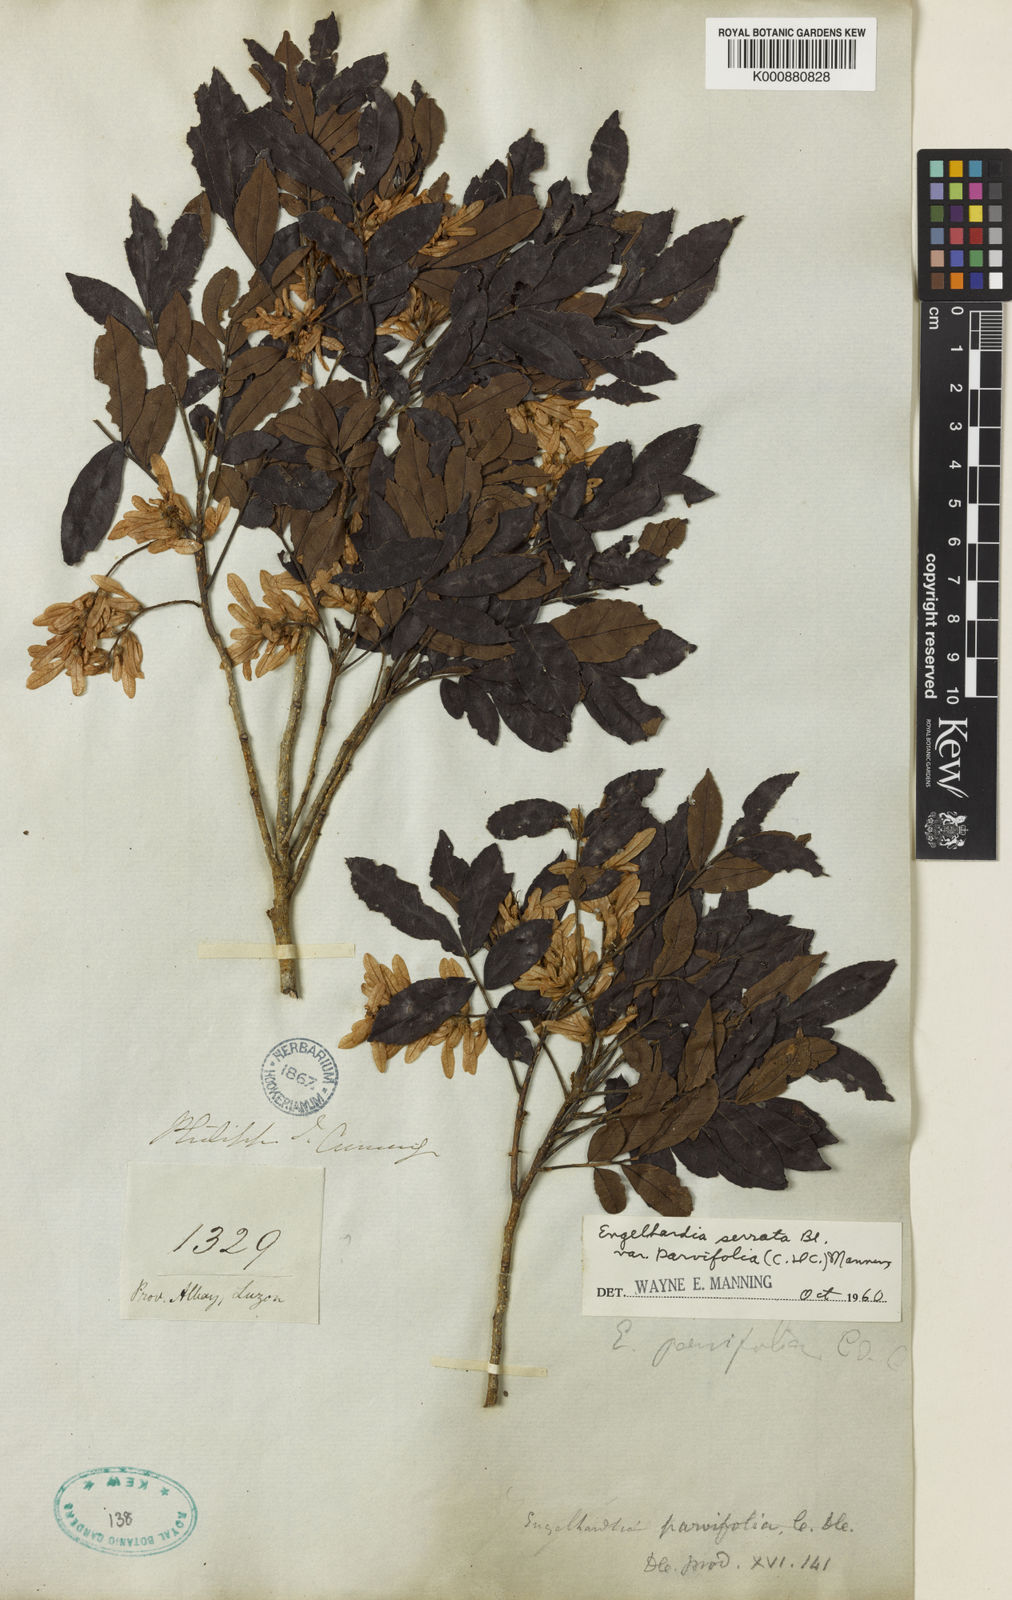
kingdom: Plantae
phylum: Tracheophyta
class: Magnoliopsida
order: Fagales
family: Juglandaceae
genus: Engelhardia
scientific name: Engelhardia serrata
